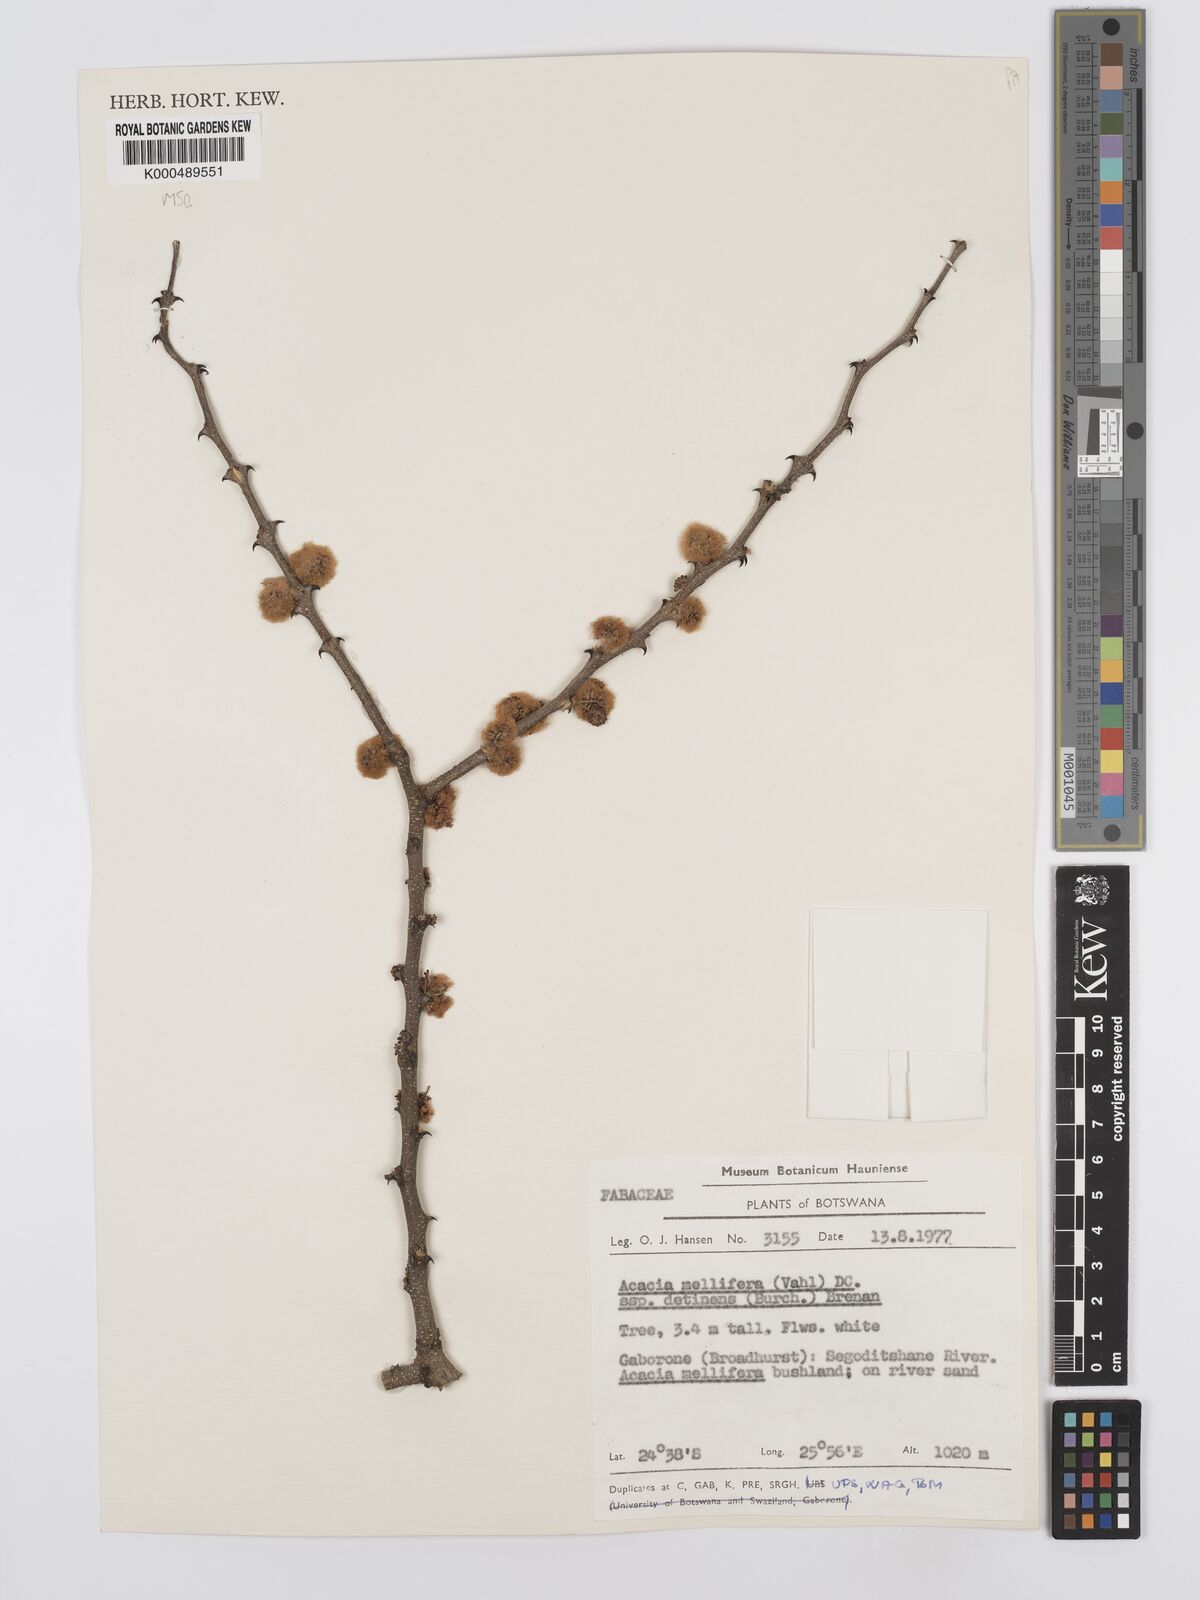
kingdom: Plantae
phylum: Tracheophyta
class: Magnoliopsida
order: Fabales
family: Fabaceae
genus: Senegalia
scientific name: Senegalia mellifera
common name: Hookthorn
